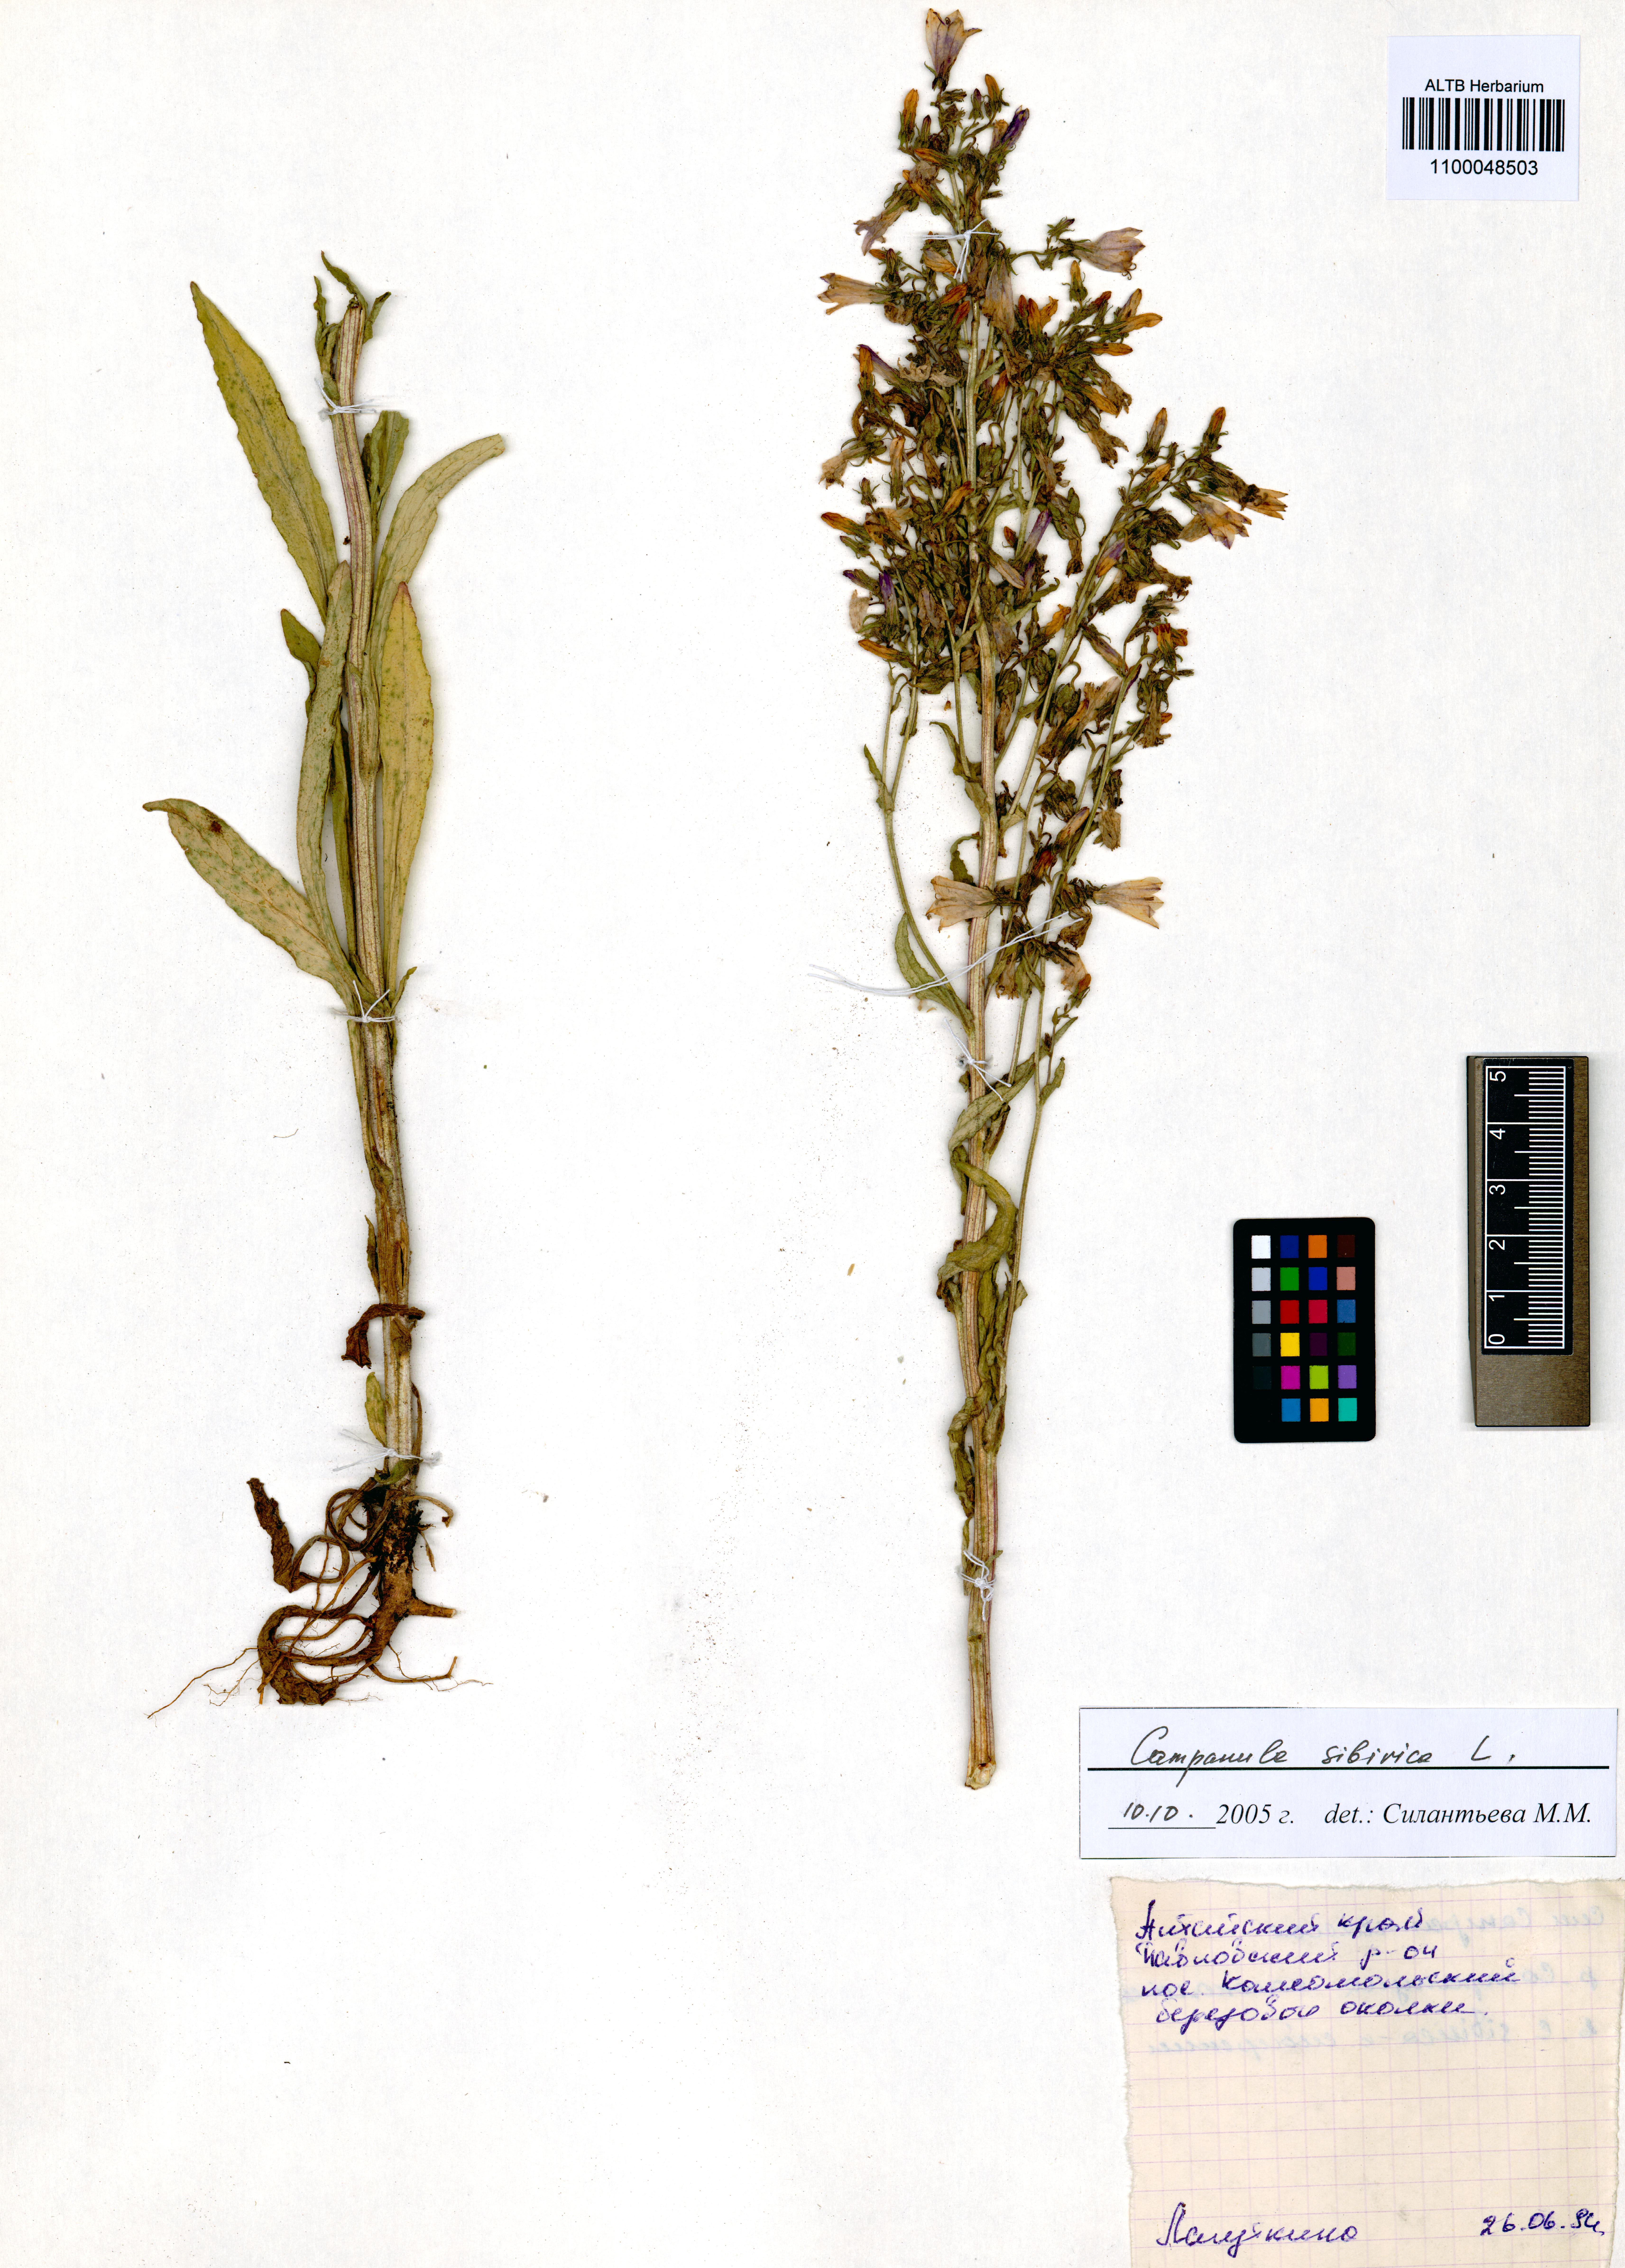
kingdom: Plantae
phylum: Tracheophyta
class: Magnoliopsida
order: Asterales
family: Campanulaceae
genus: Campanula
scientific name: Campanula sibirica
